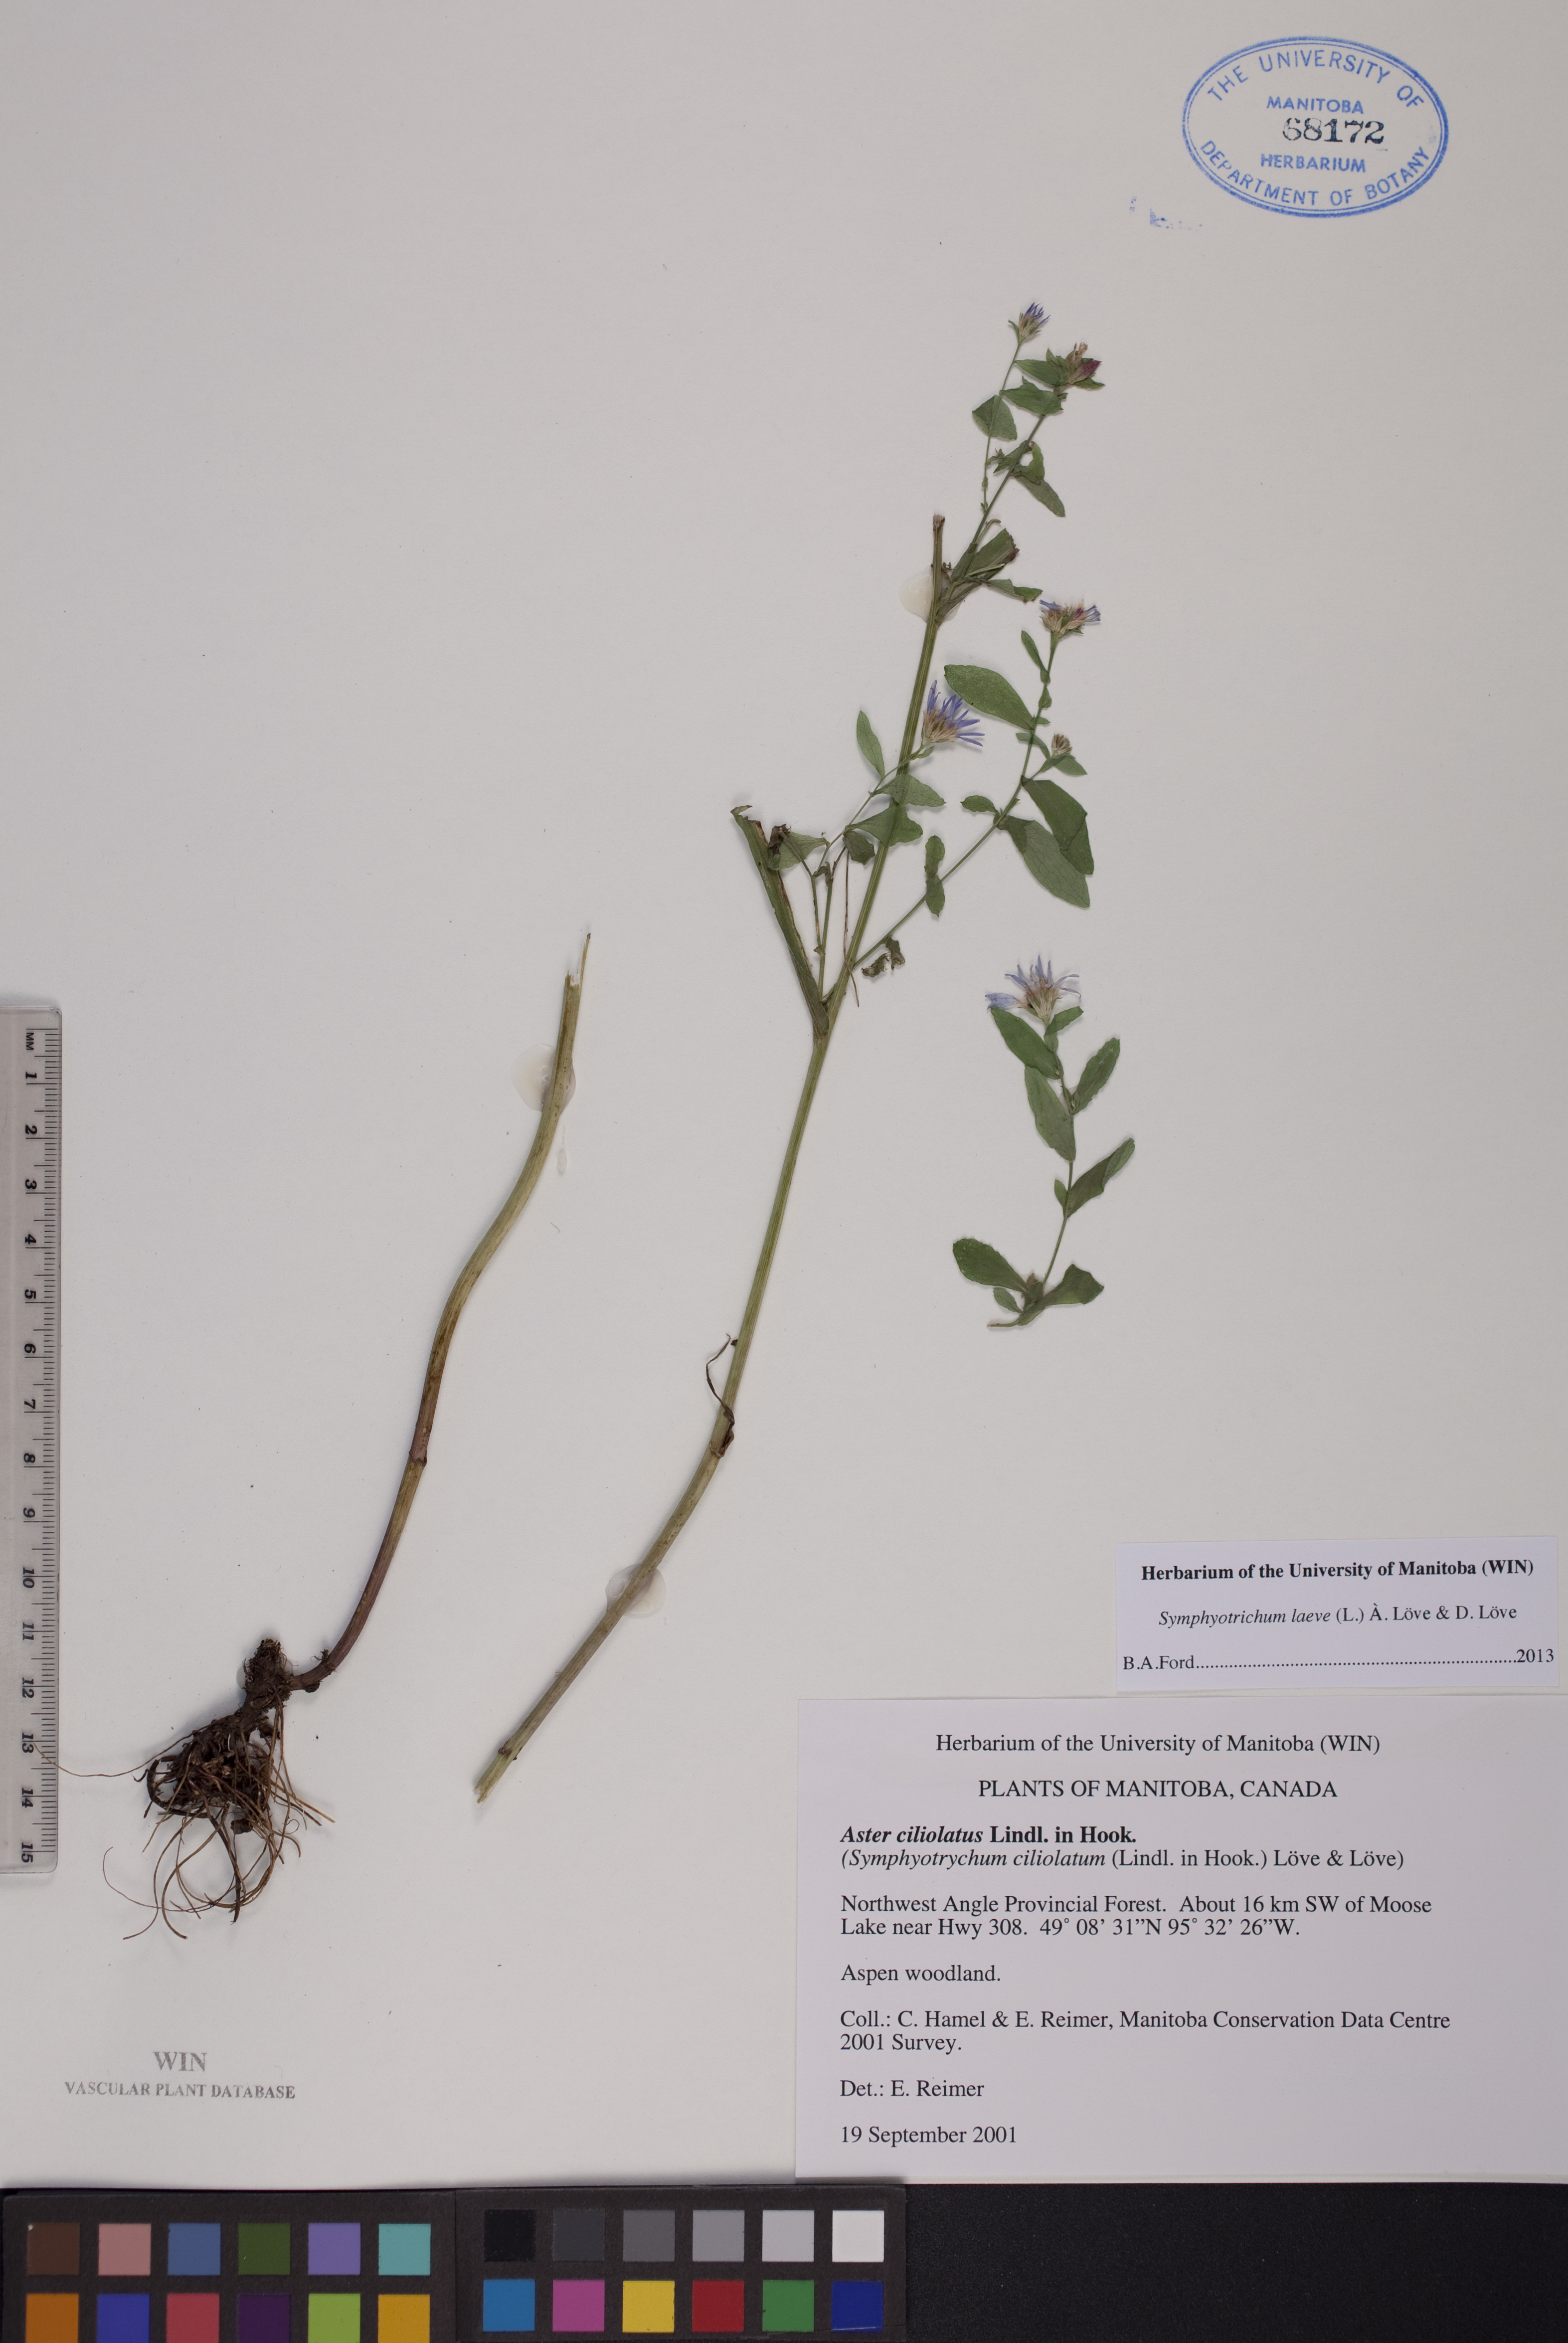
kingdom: Plantae
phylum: Tracheophyta
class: Magnoliopsida
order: Asterales
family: Asteraceae
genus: Symphyotrichum
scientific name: Symphyotrichum laeve
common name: Glaucous aster
